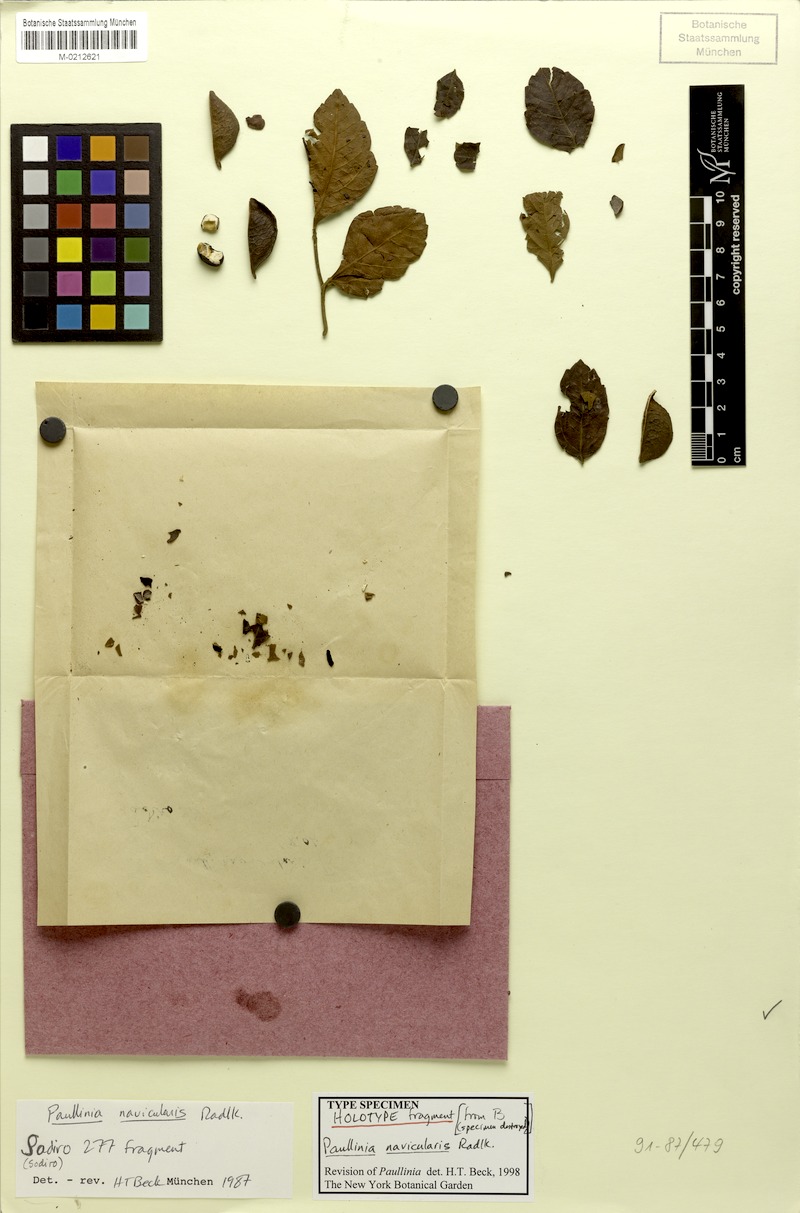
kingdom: Plantae
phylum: Tracheophyta
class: Magnoliopsida
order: Sapindales
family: Sapindaceae
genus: Paullinia
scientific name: Paullinia navicularis
